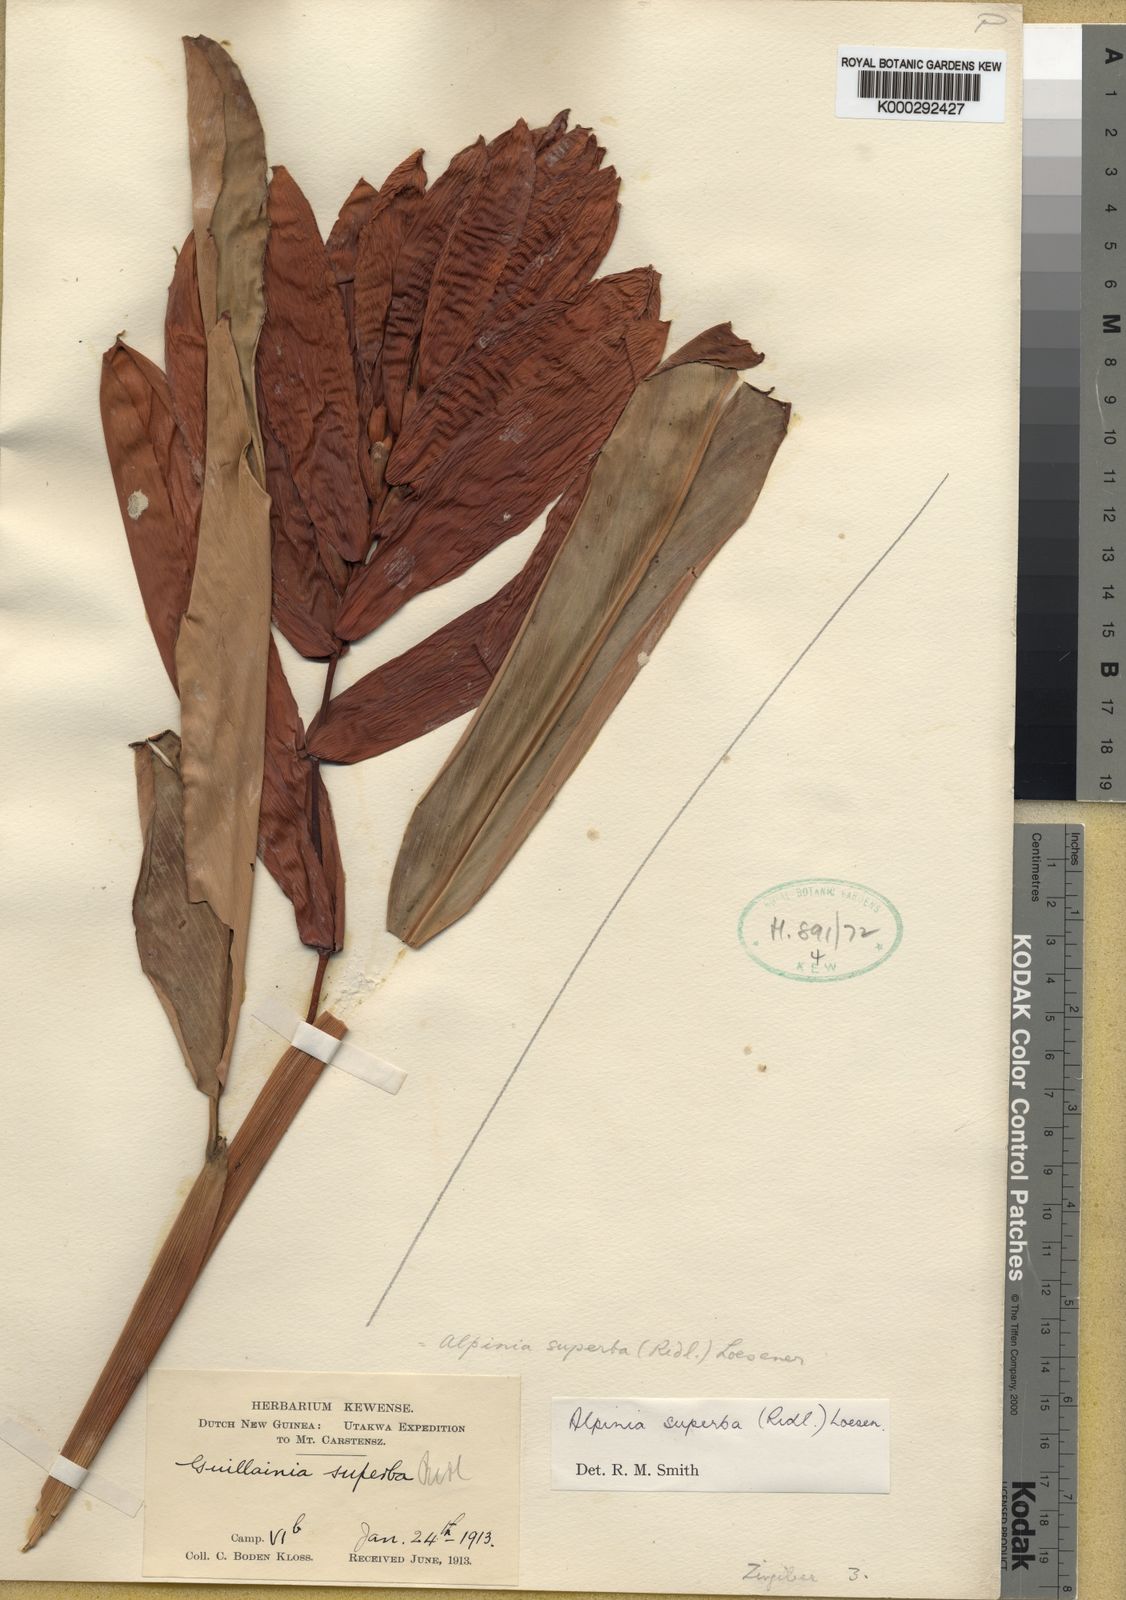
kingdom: Plantae
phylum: Tracheophyta
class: Liliopsida
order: Zingiberales
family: Zingiberaceae
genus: Alpinia
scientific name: Alpinia superba
